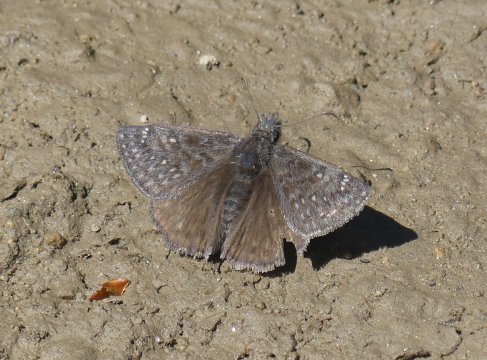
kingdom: Animalia
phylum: Arthropoda
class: Insecta
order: Lepidoptera
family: Hesperiidae
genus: Erynnis
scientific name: Erynnis propertius
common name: Propertius Duskywing
